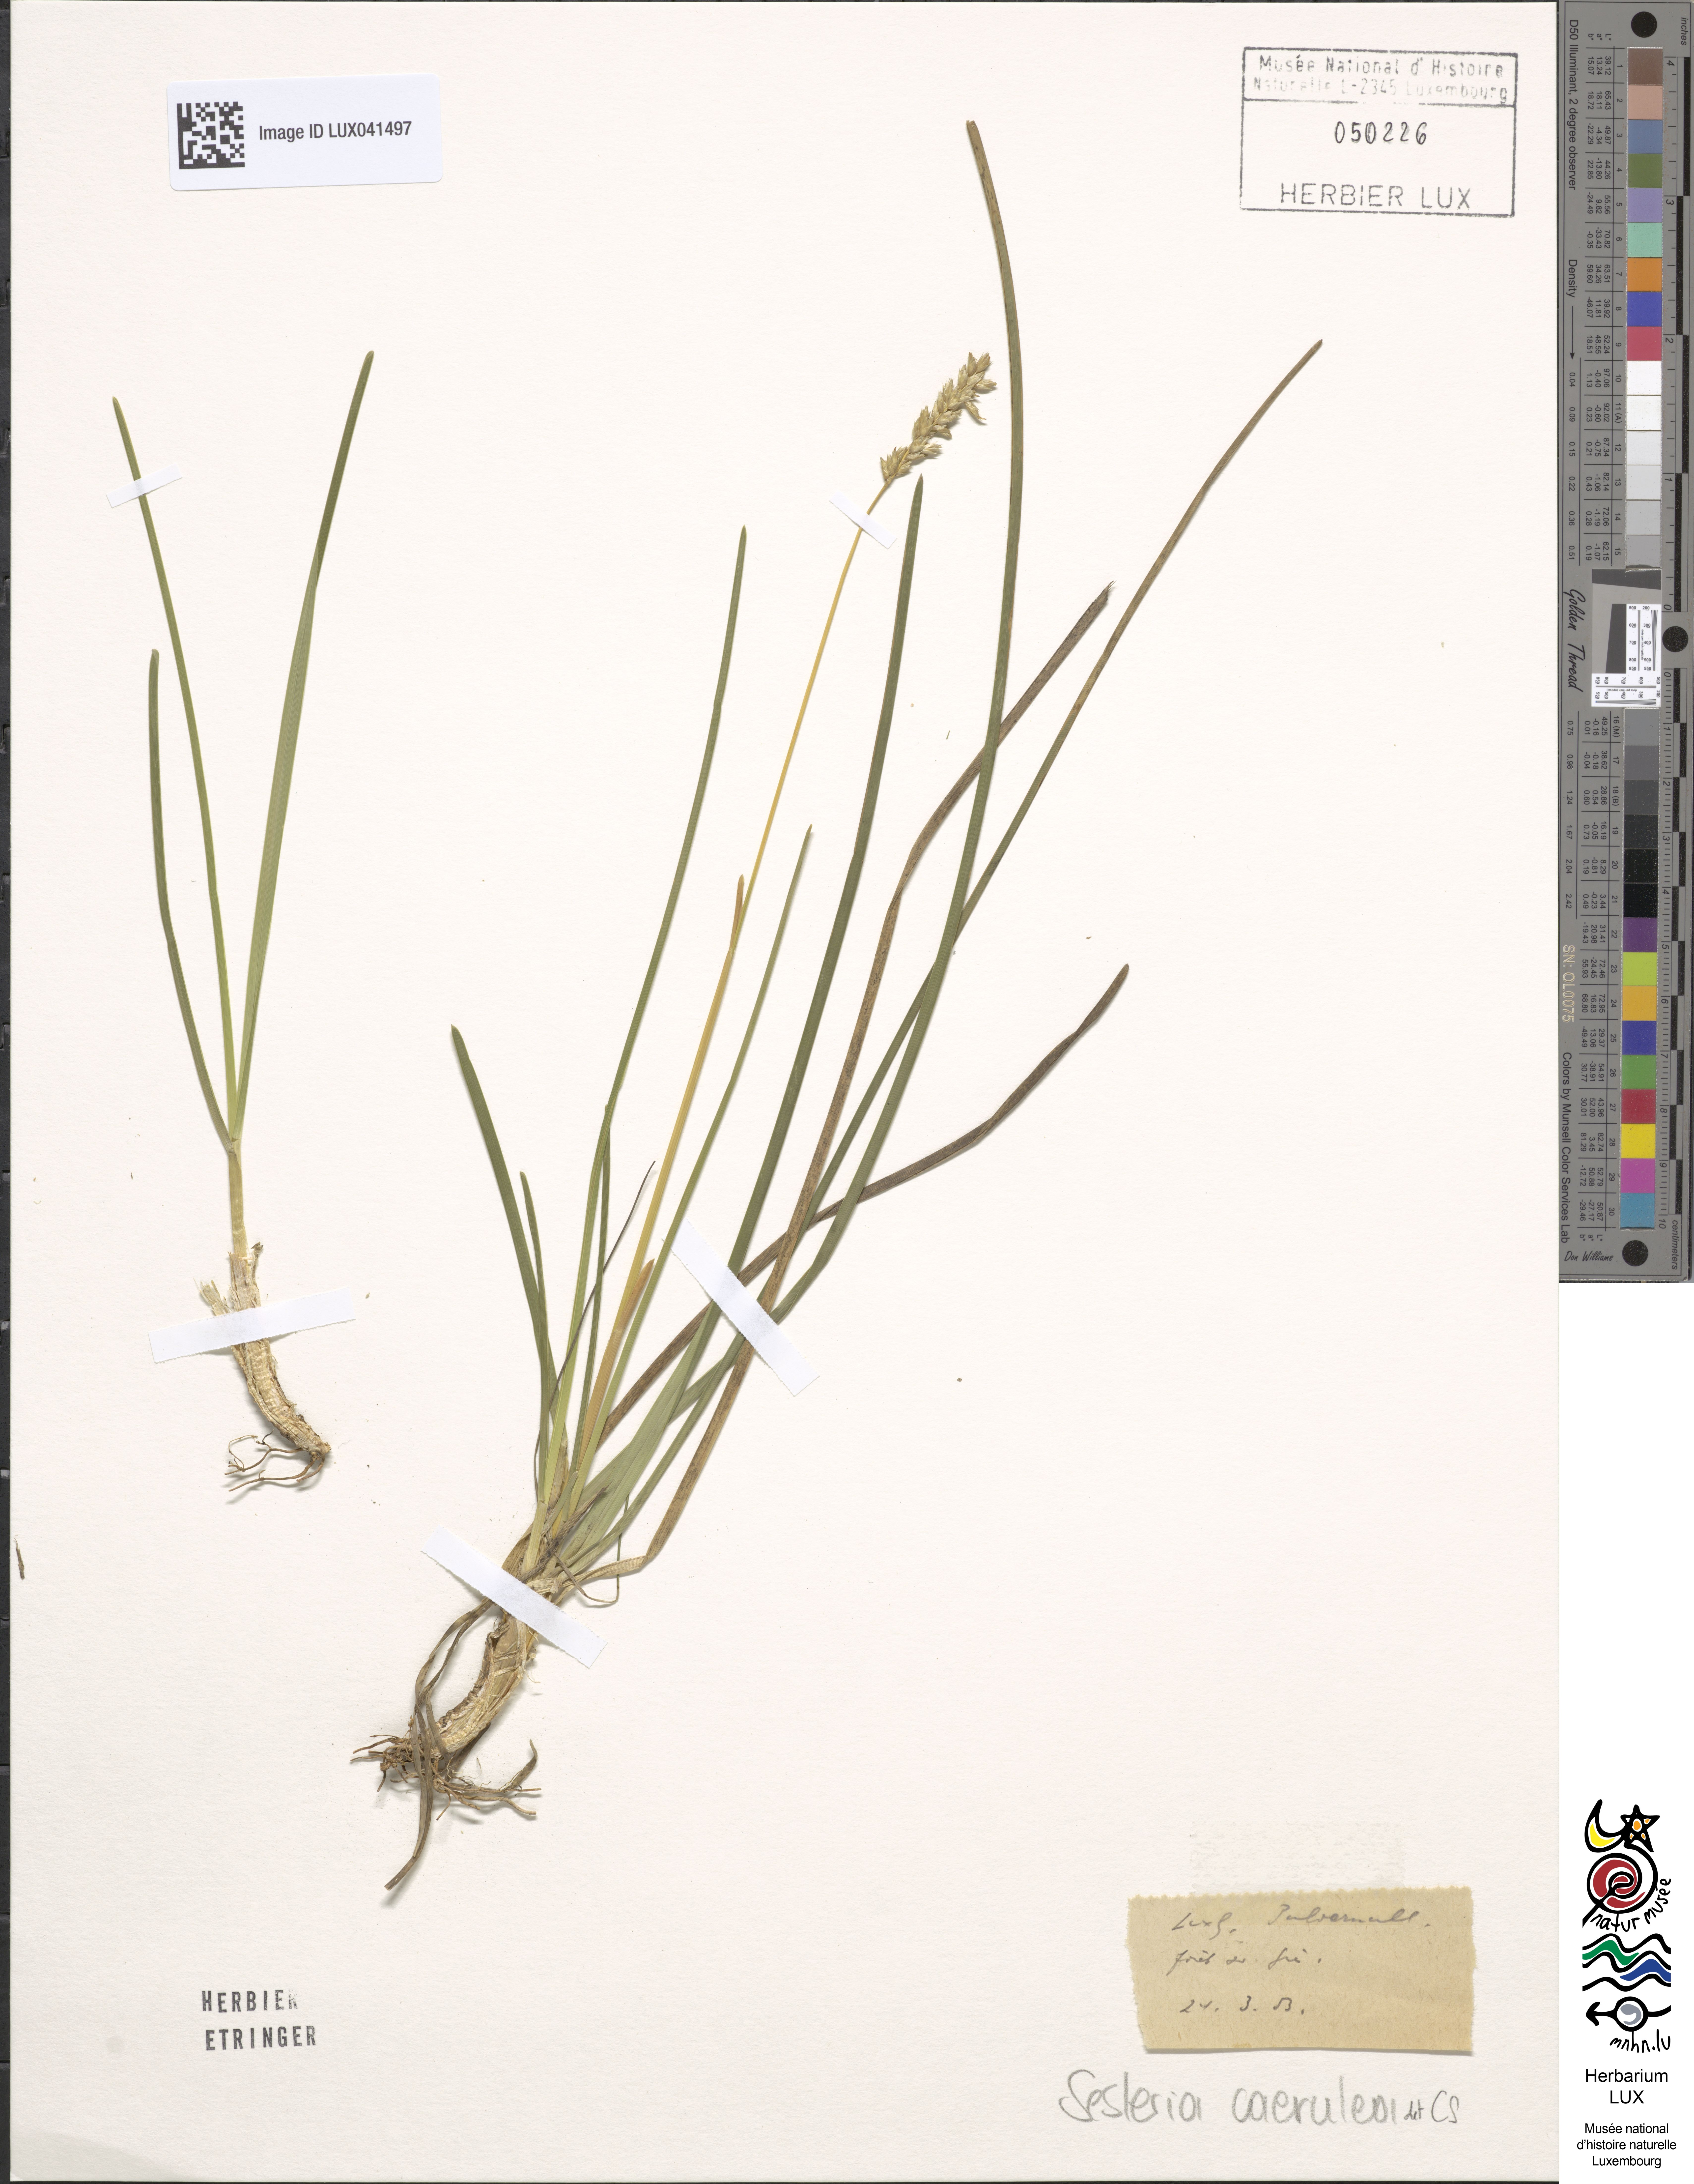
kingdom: Plantae
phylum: Tracheophyta
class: Liliopsida
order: Poales
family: Poaceae
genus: Sesleria
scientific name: Sesleria caerulea
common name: Blue moor-grass
